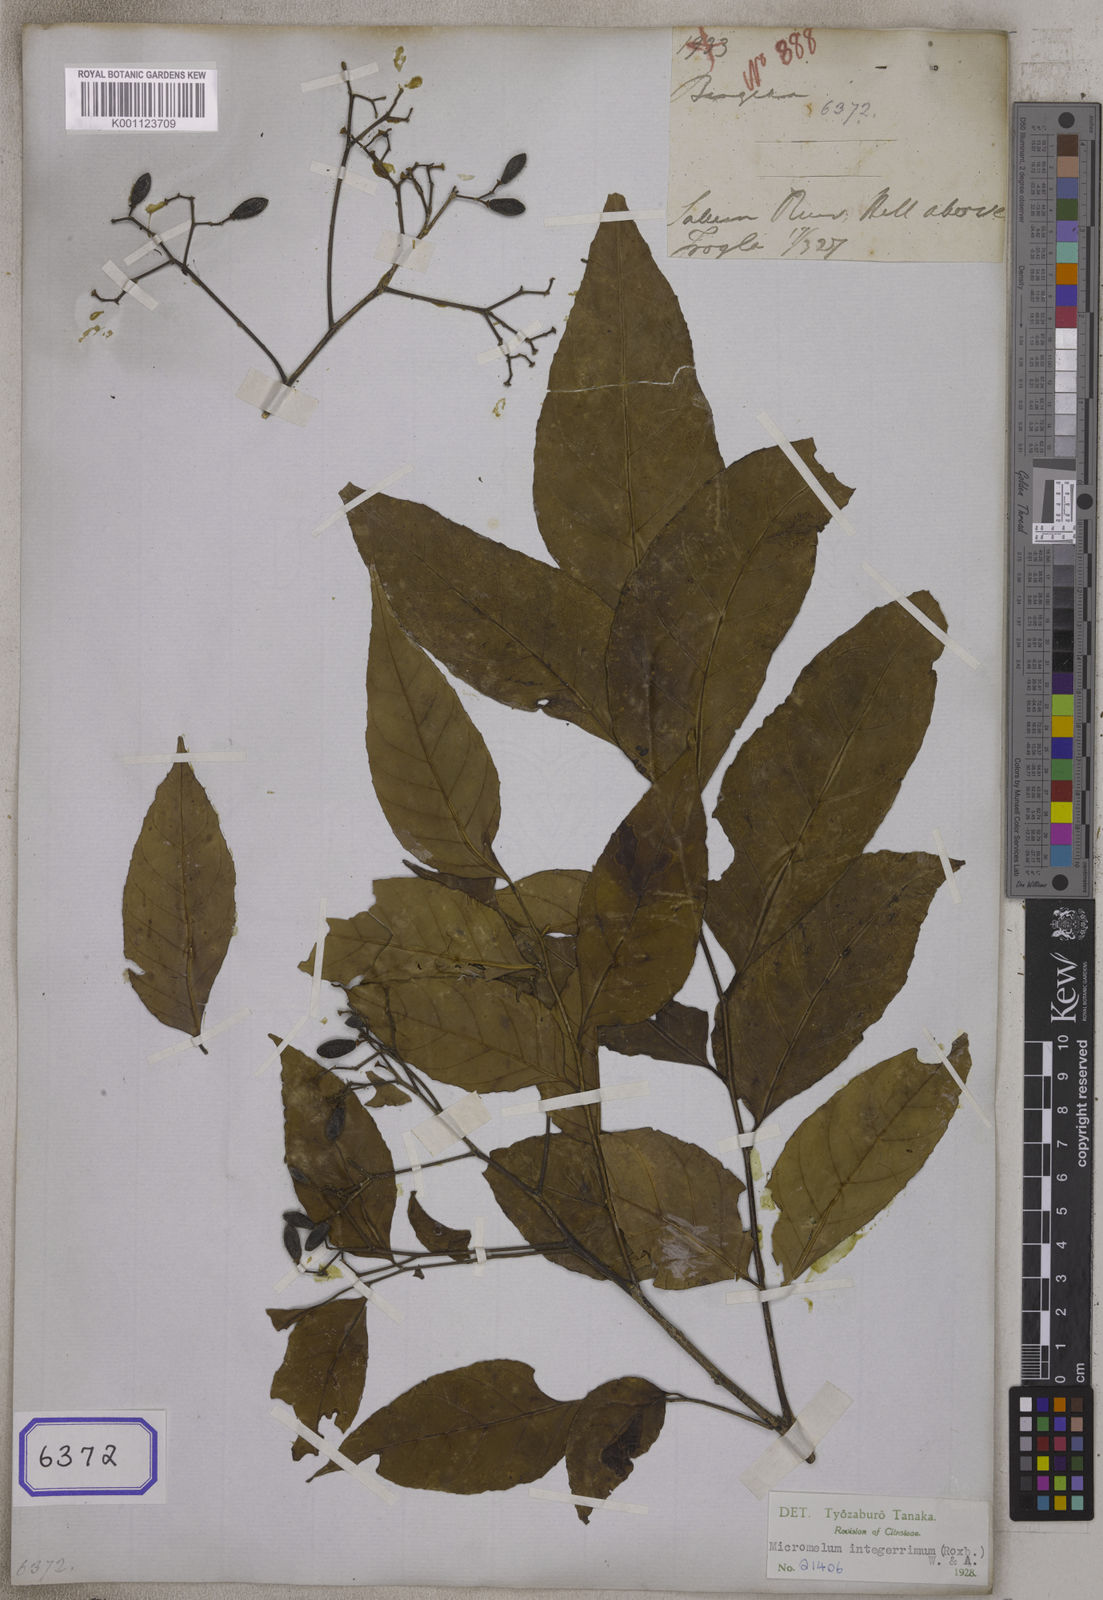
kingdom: Plantae
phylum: Tracheophyta
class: Magnoliopsida
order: Sapindales
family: Rutaceae
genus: Micromelum
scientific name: Micromelum minutum
